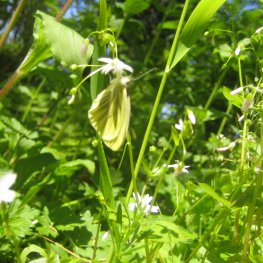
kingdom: Animalia
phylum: Arthropoda
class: Insecta
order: Lepidoptera
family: Pieridae
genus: Pieris
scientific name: Pieris marginalis
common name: Margined White
